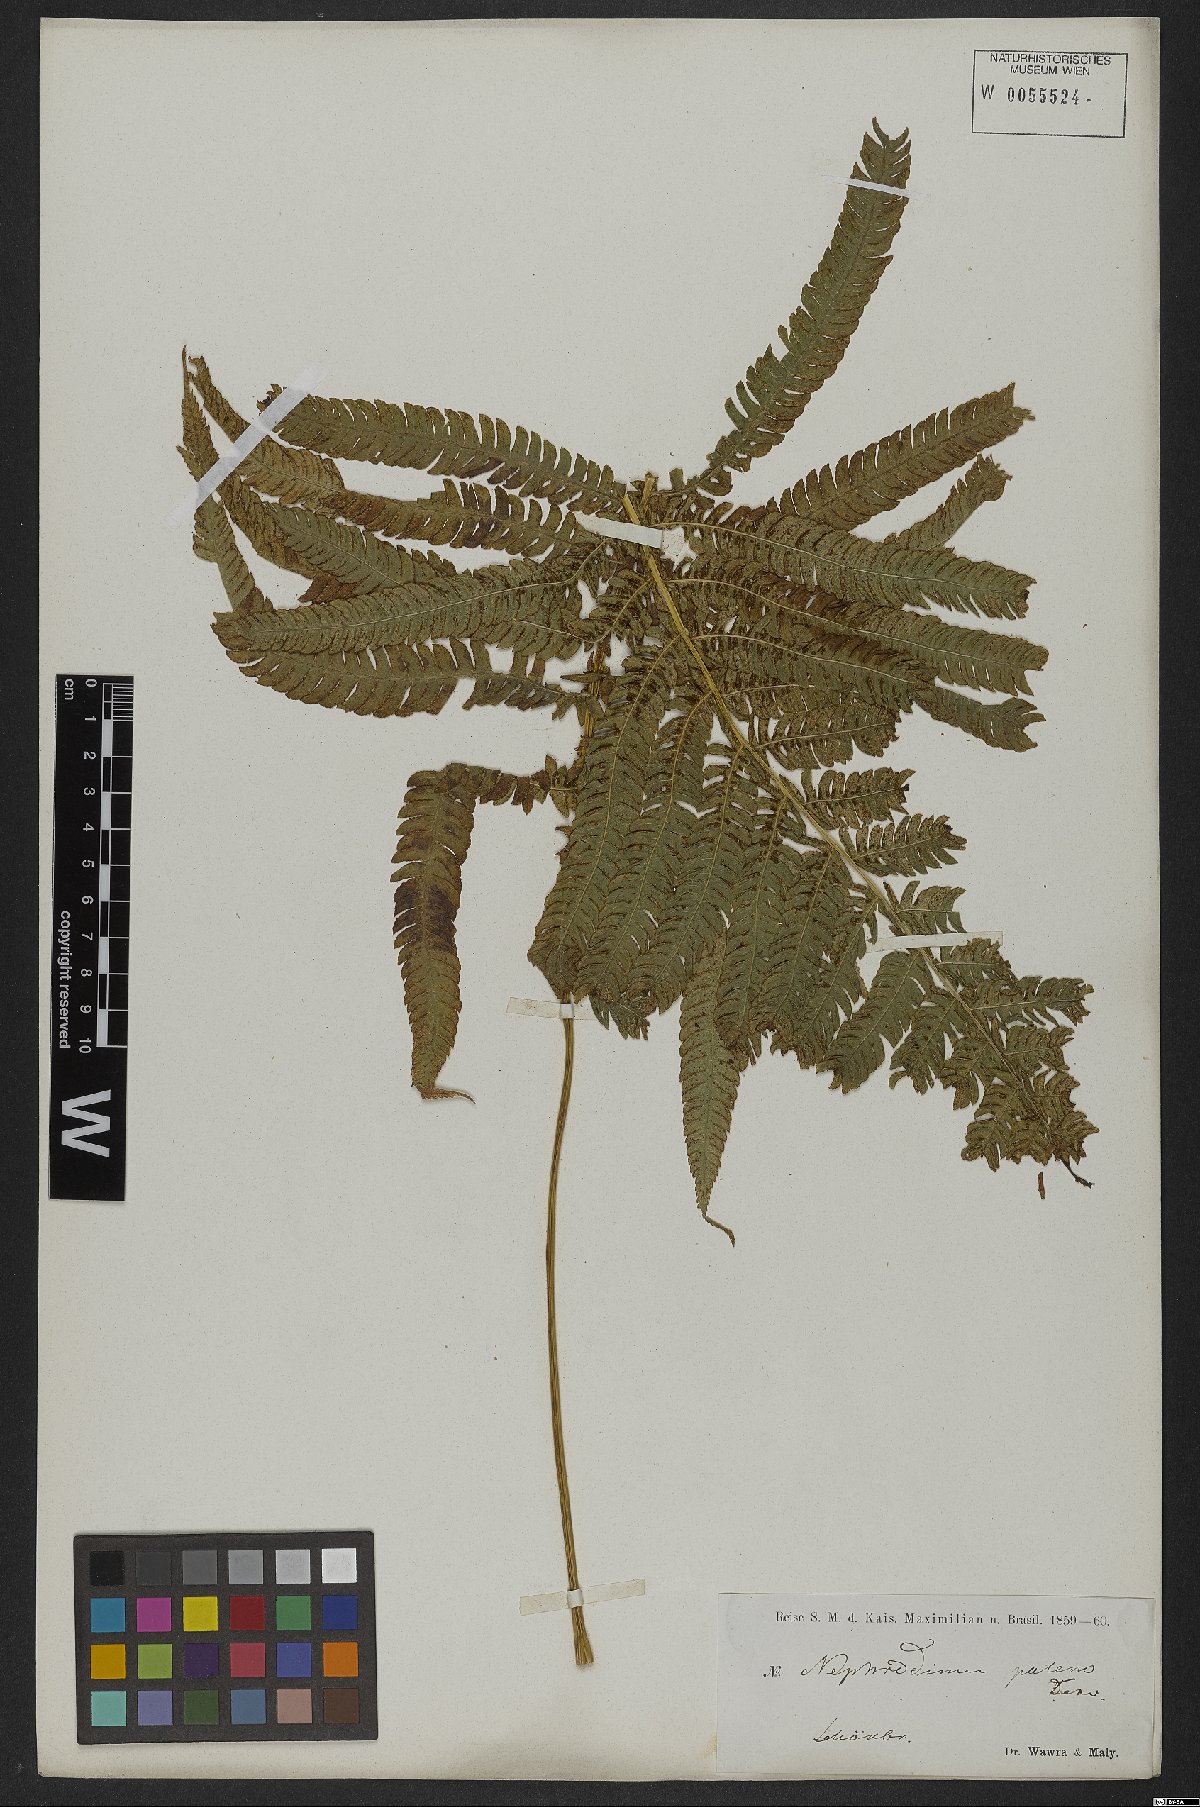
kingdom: Plantae
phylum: Tracheophyta
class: Polypodiopsida
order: Polypodiales
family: Thelypteridaceae
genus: Pelazoneuron
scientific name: Pelazoneuron patens
